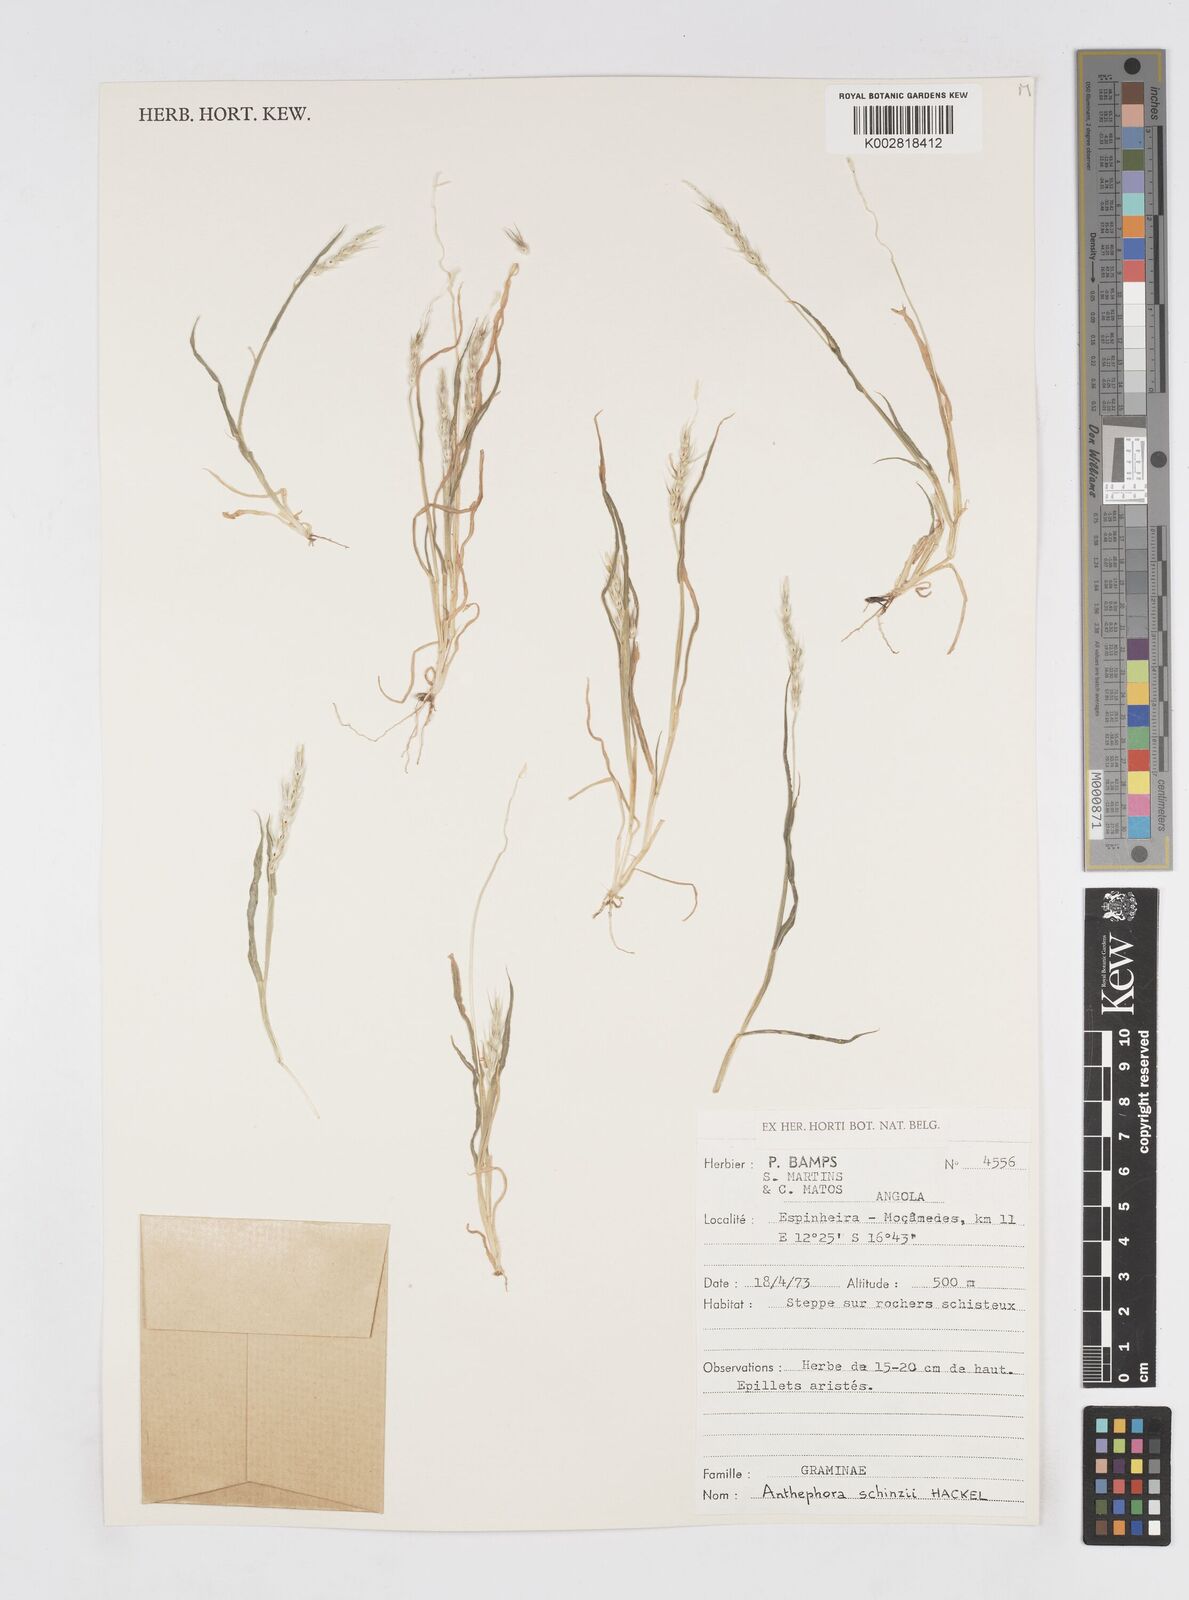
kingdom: Plantae
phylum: Tracheophyta
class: Liliopsida
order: Poales
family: Poaceae
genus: Anthephora
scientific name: Anthephora schinzii
